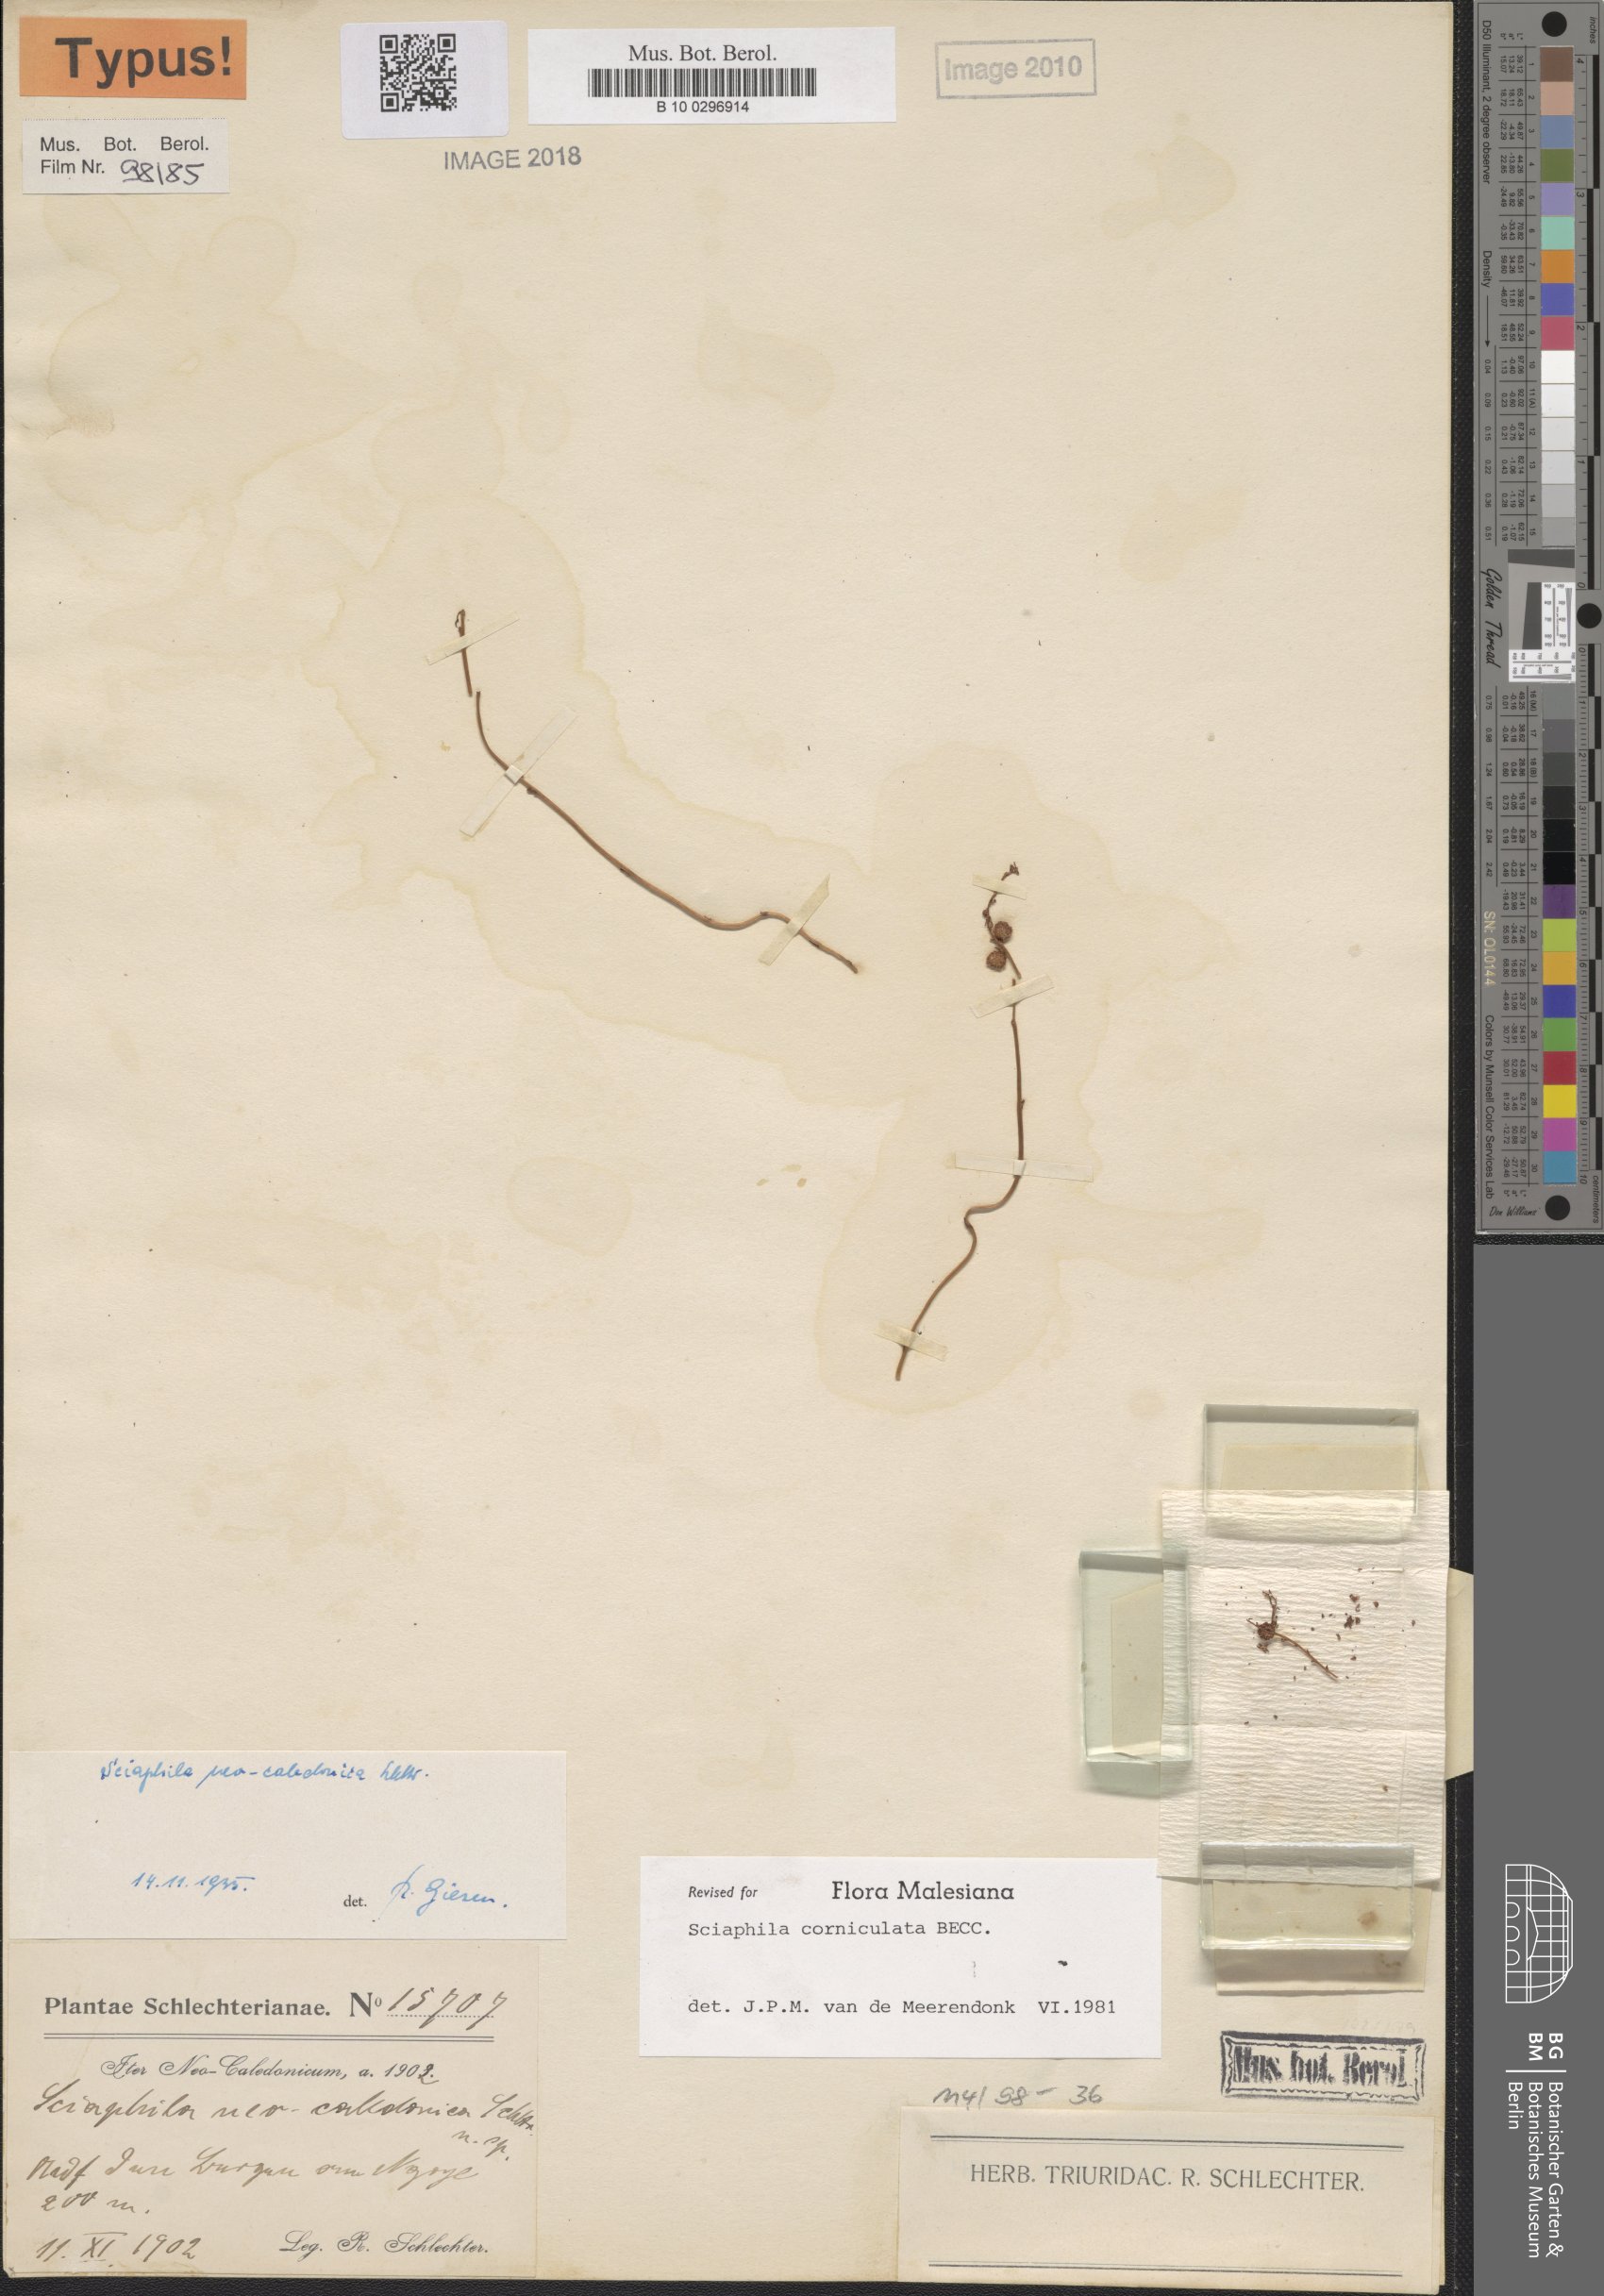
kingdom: Plantae
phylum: Tracheophyta
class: Liliopsida
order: Pandanales
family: Triuridaceae
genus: Sciaphila
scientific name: Sciaphila corniculata
